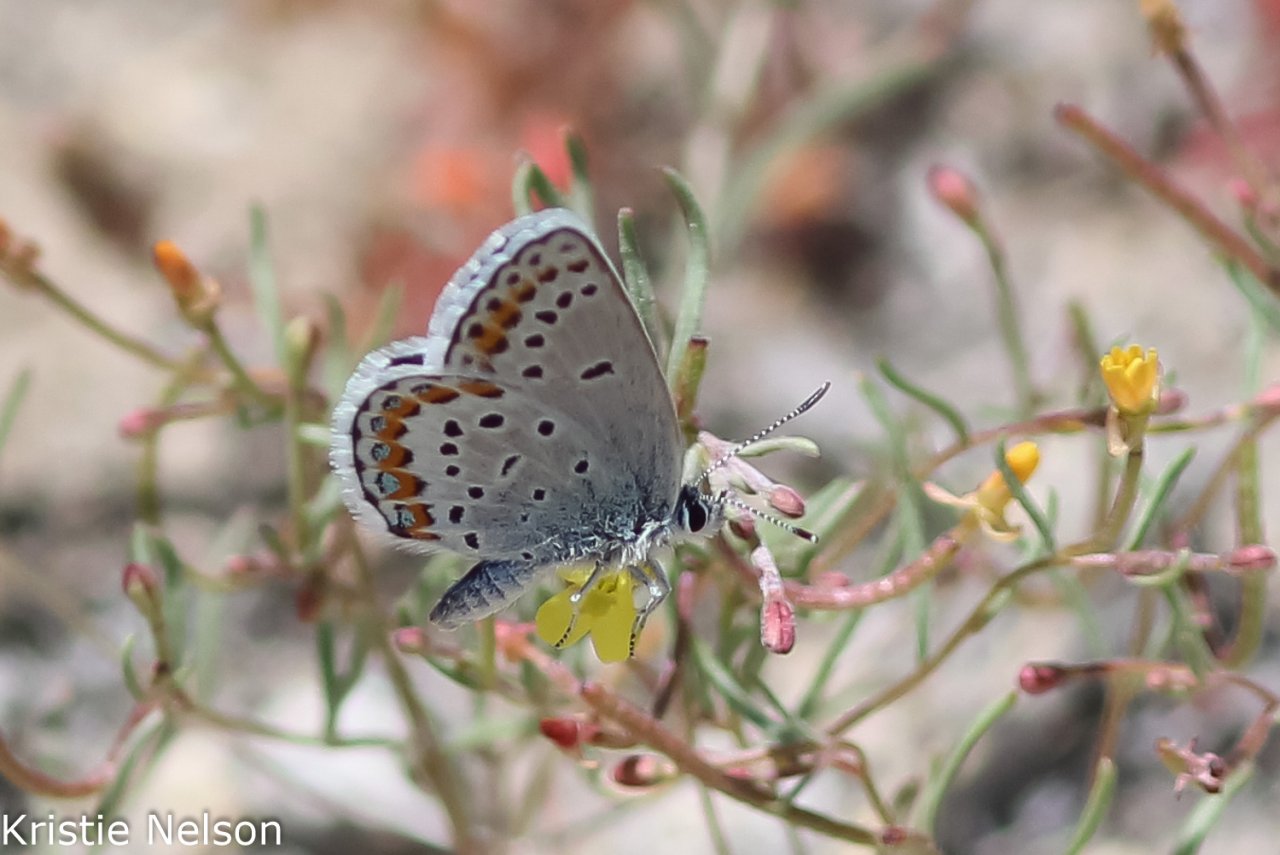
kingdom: Animalia
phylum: Arthropoda
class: Insecta
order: Lepidoptera
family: Lycaenidae
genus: Lycaeides
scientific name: Lycaeides melissa
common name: Melissa Blue
